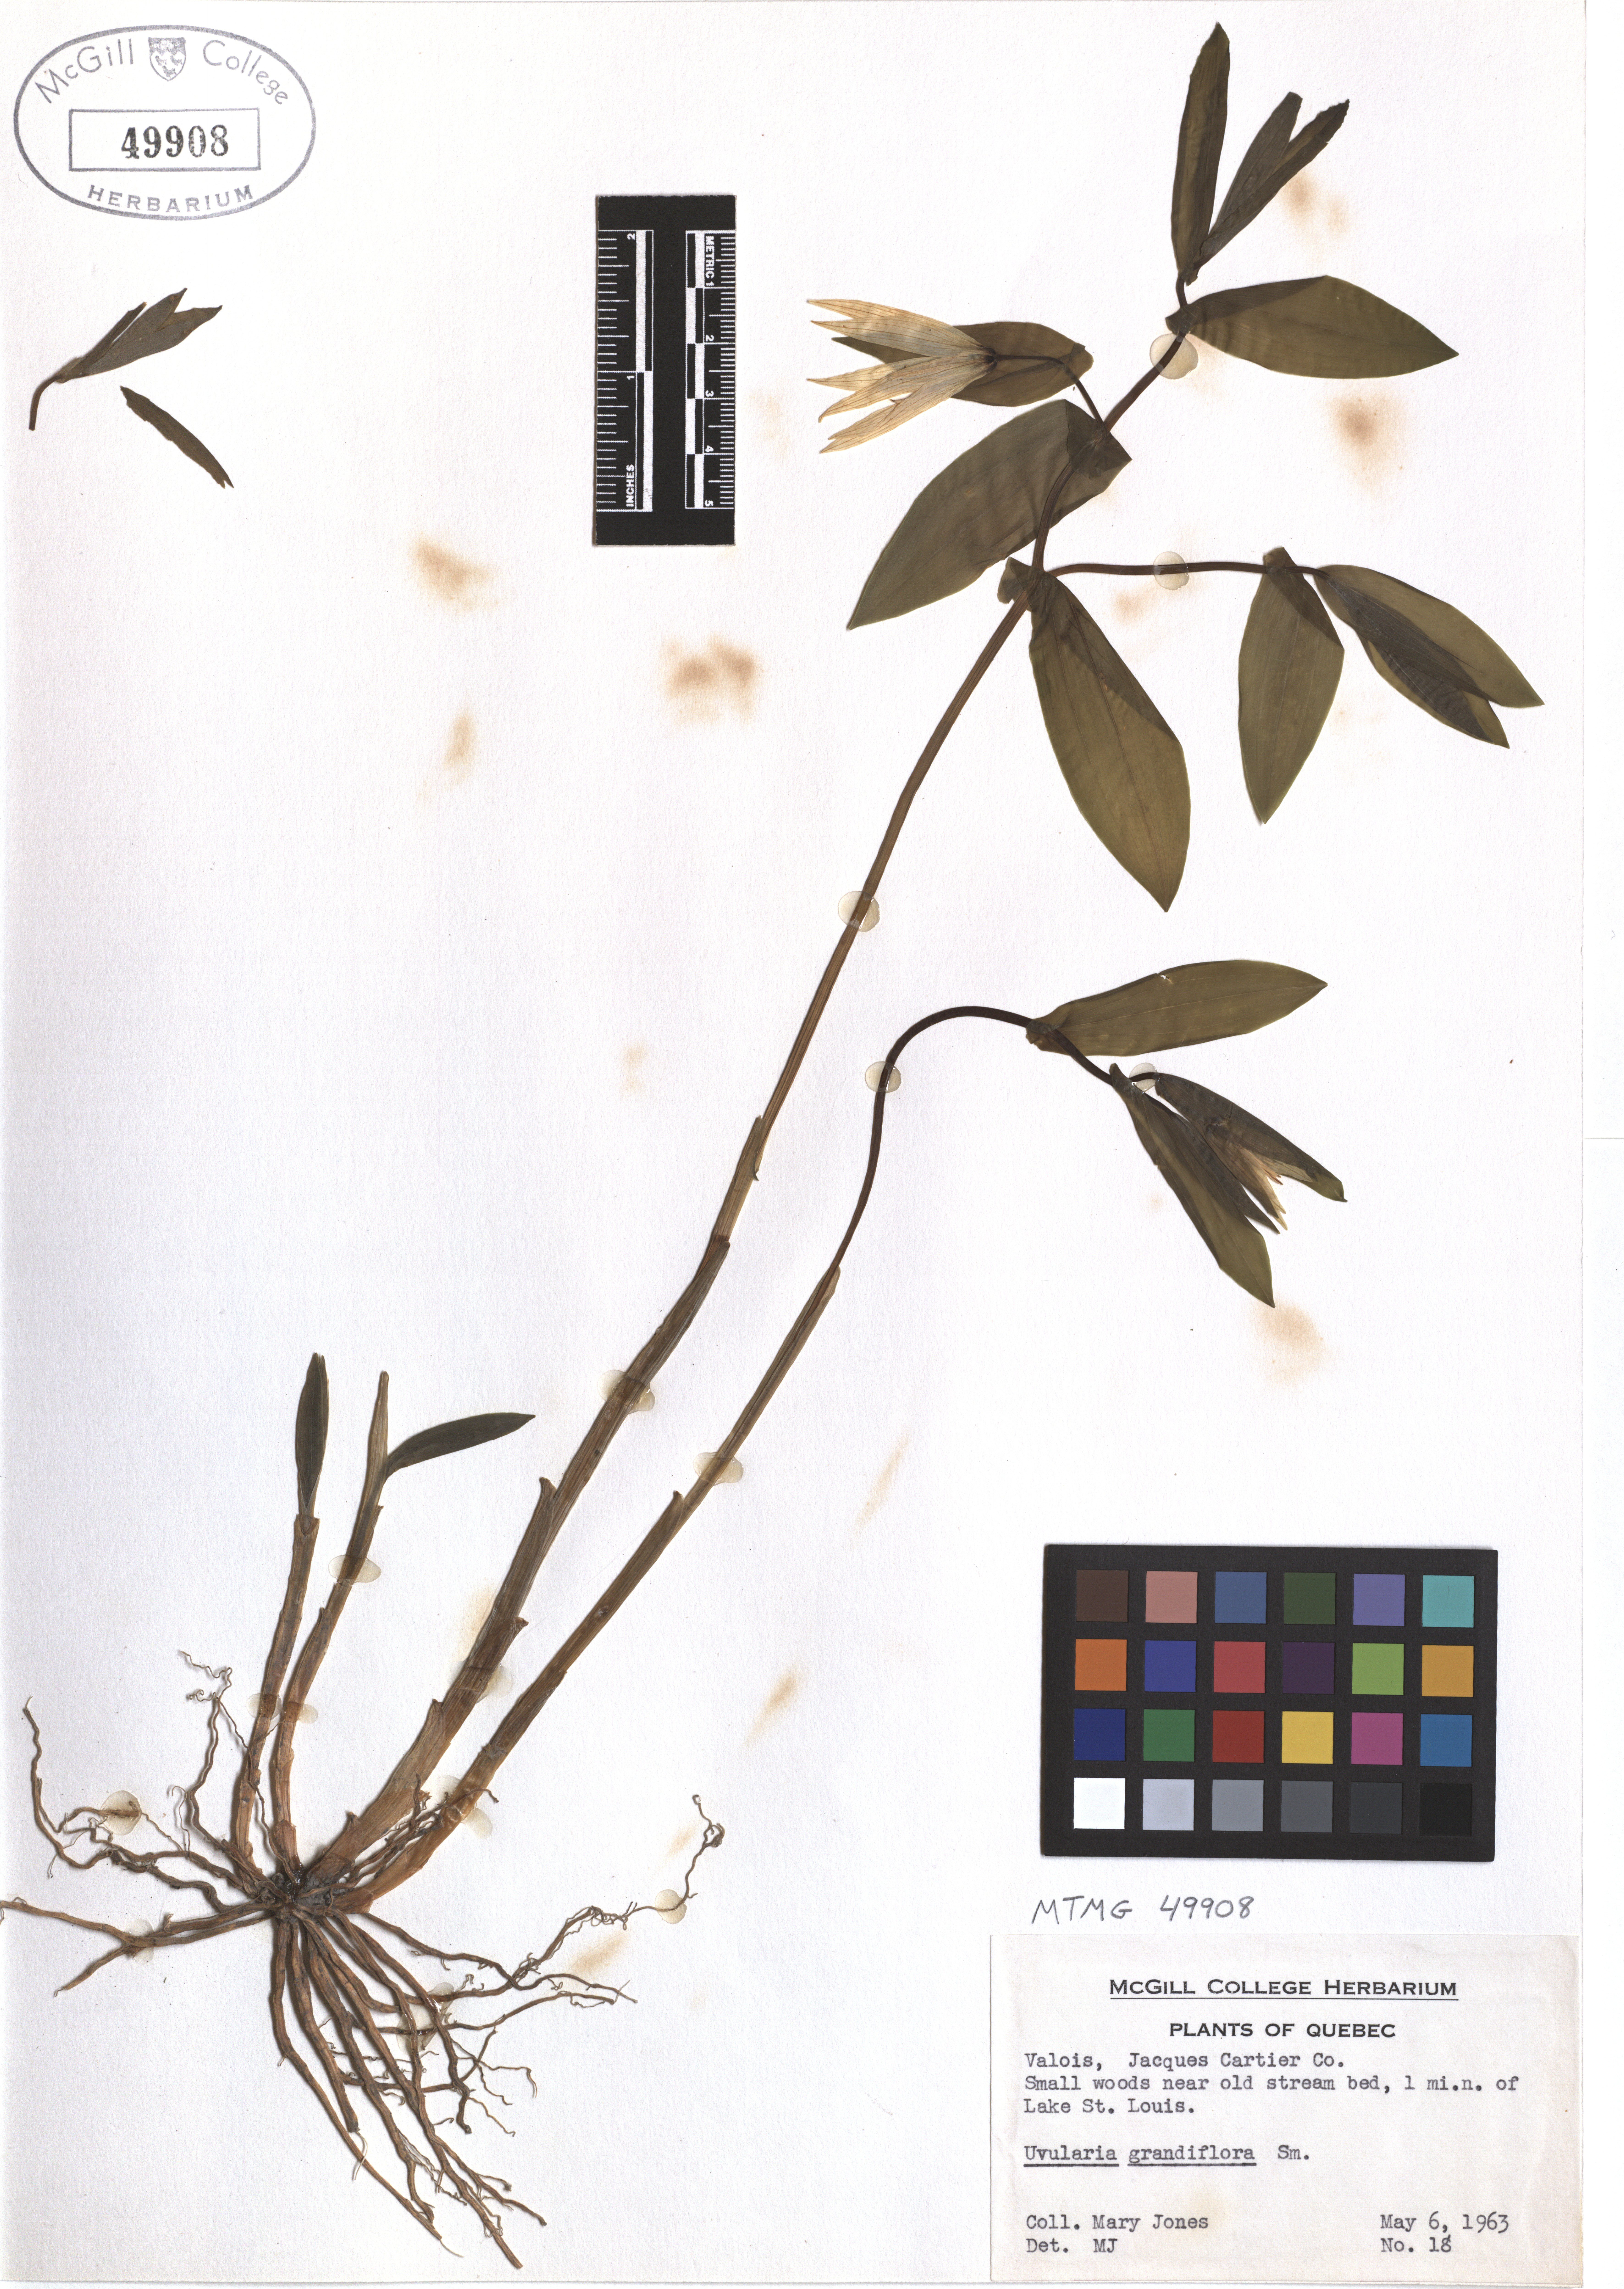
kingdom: Plantae
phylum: Tracheophyta
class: Liliopsida
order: Liliales
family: Colchicaceae
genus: Uvularia
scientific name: Uvularia grandiflora
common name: Bellwort
